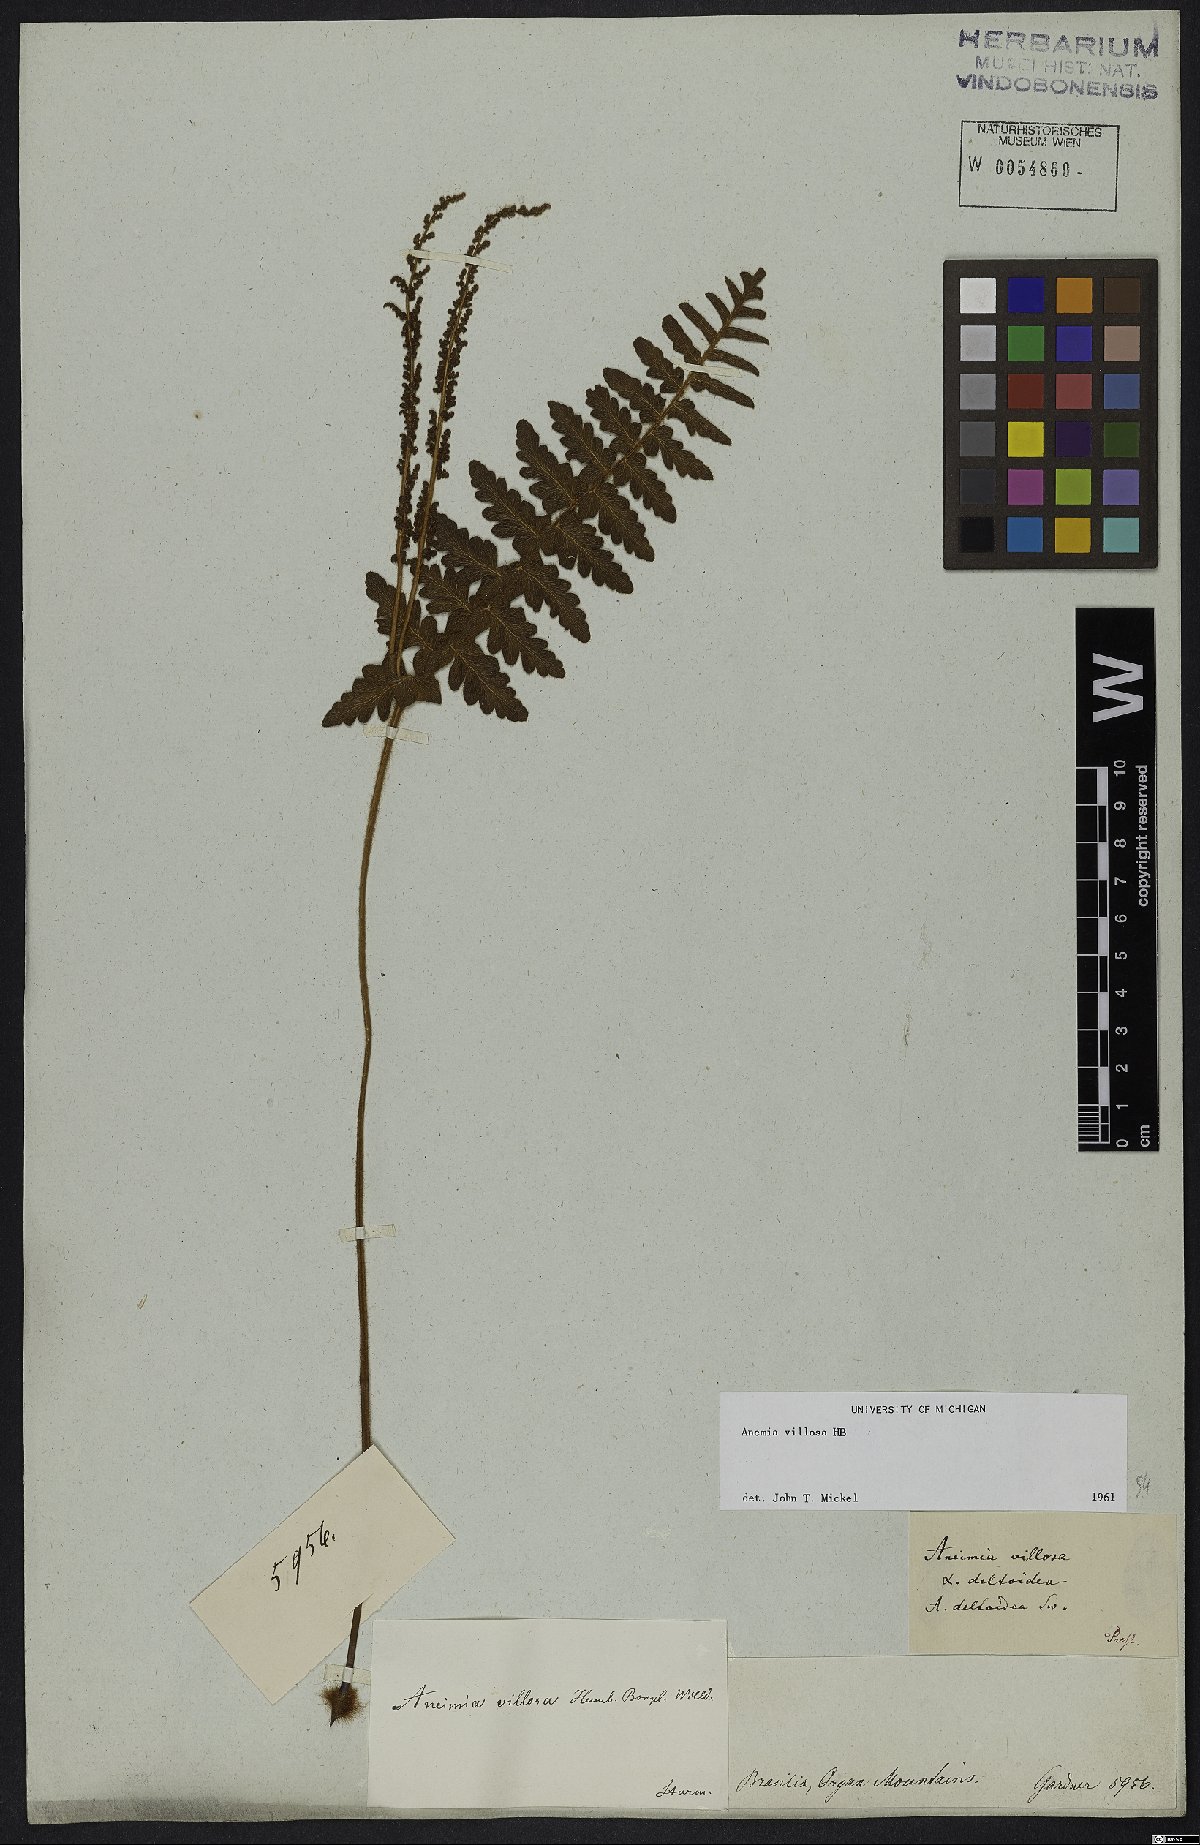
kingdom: Plantae
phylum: Tracheophyta
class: Polypodiopsida
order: Schizaeales
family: Anemiaceae
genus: Anemia
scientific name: Anemia villosa
